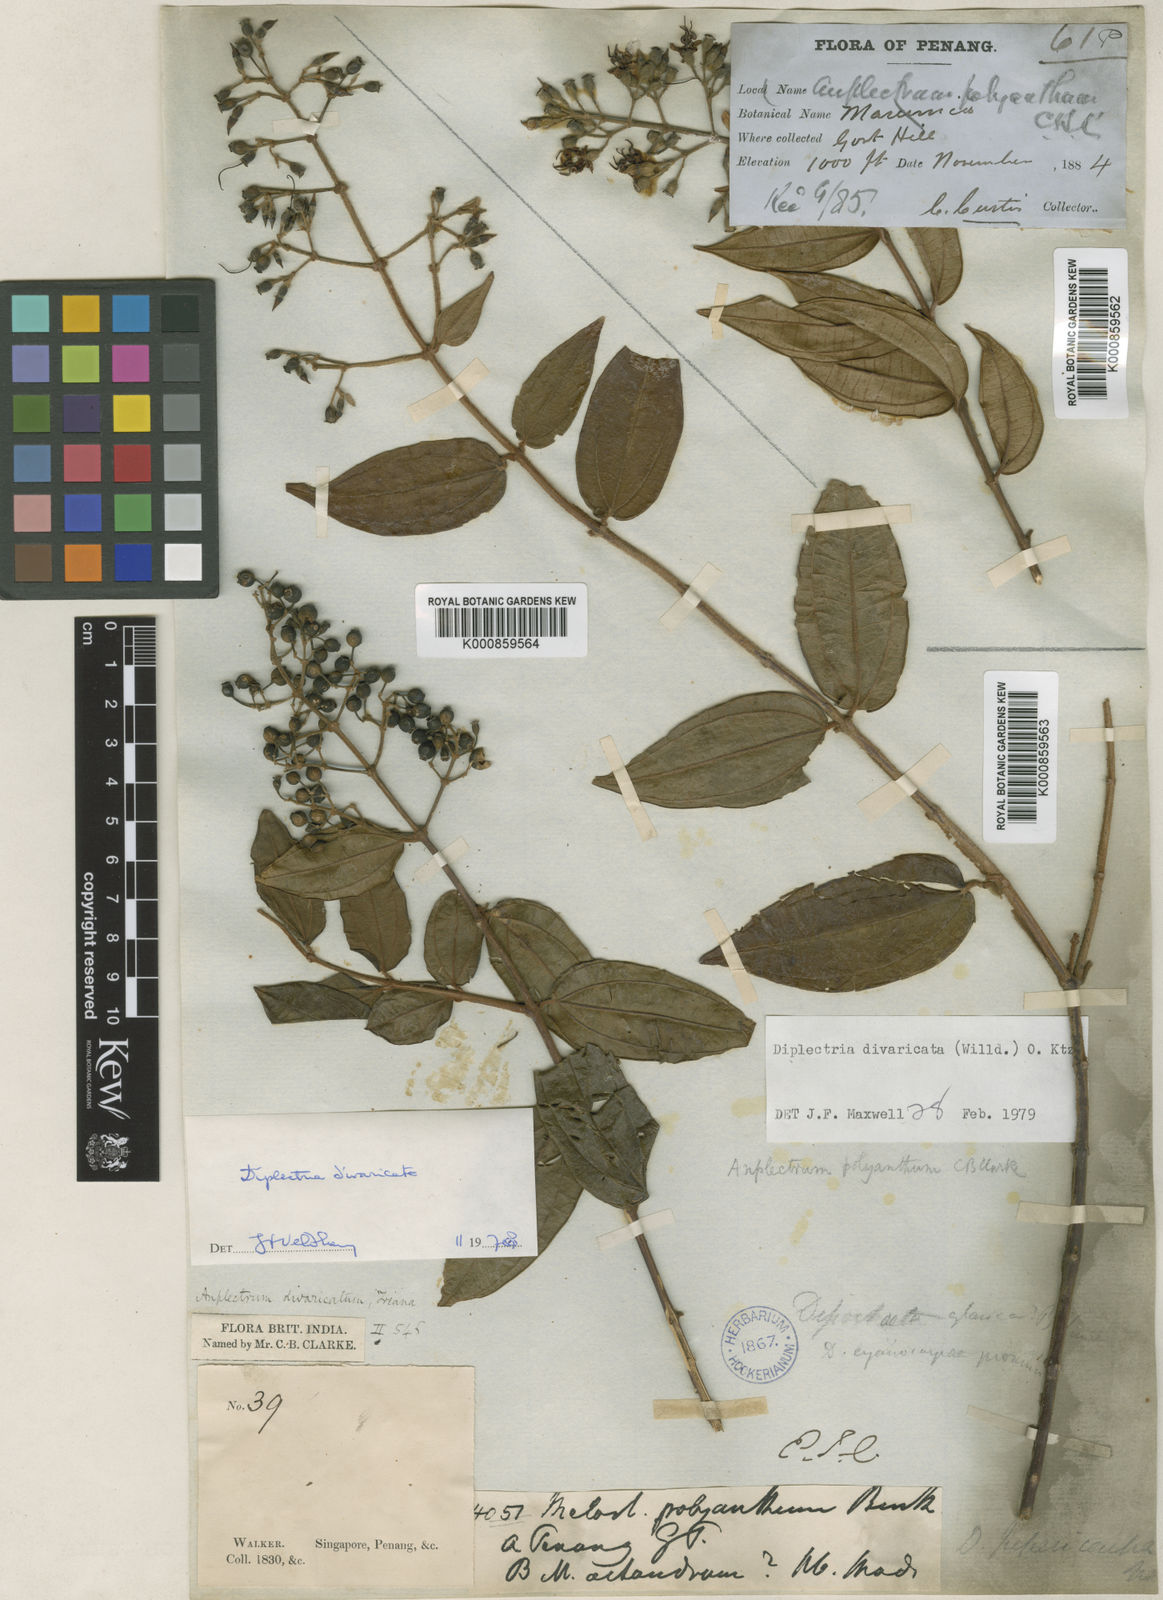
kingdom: Plantae
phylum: Tracheophyta
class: Magnoliopsida
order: Myrtales
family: Melastomataceae
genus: Diplectria
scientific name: Diplectria divaricata
